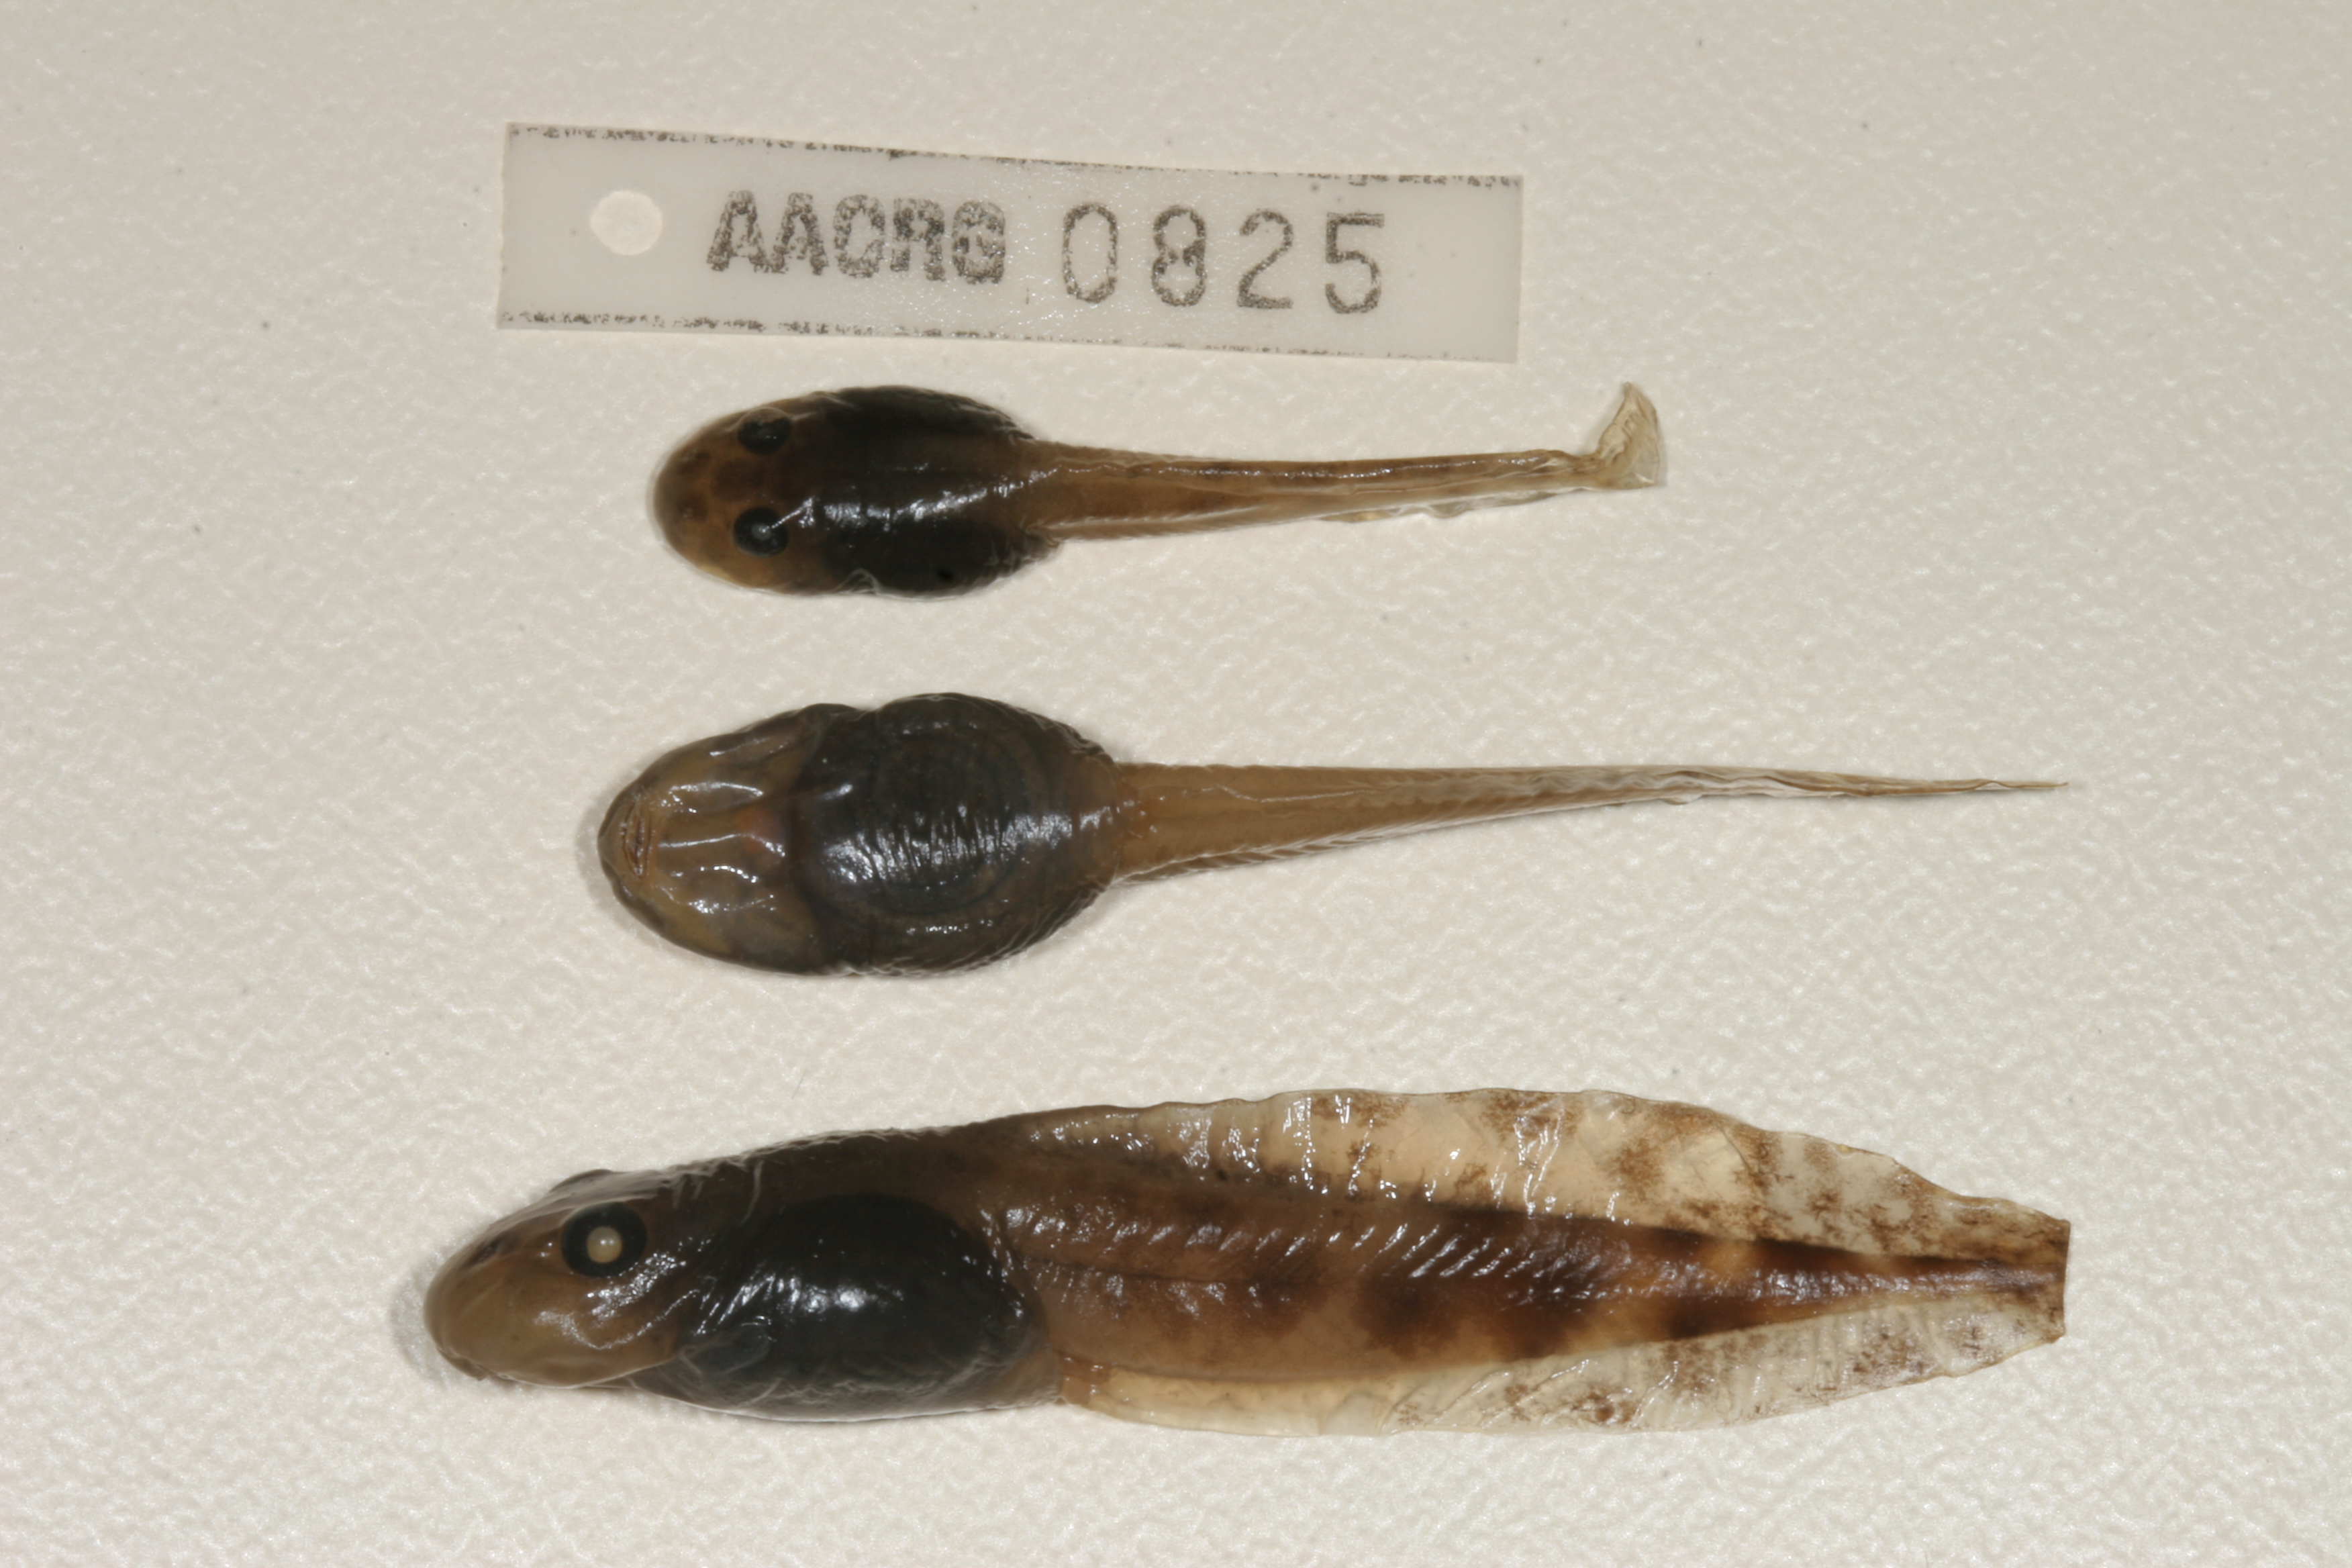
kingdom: Animalia
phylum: Chordata
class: Amphibia
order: Anura
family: Pyxicephalidae
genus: Amietia
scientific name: Amietia angolensis
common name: Dusky-throated frog
